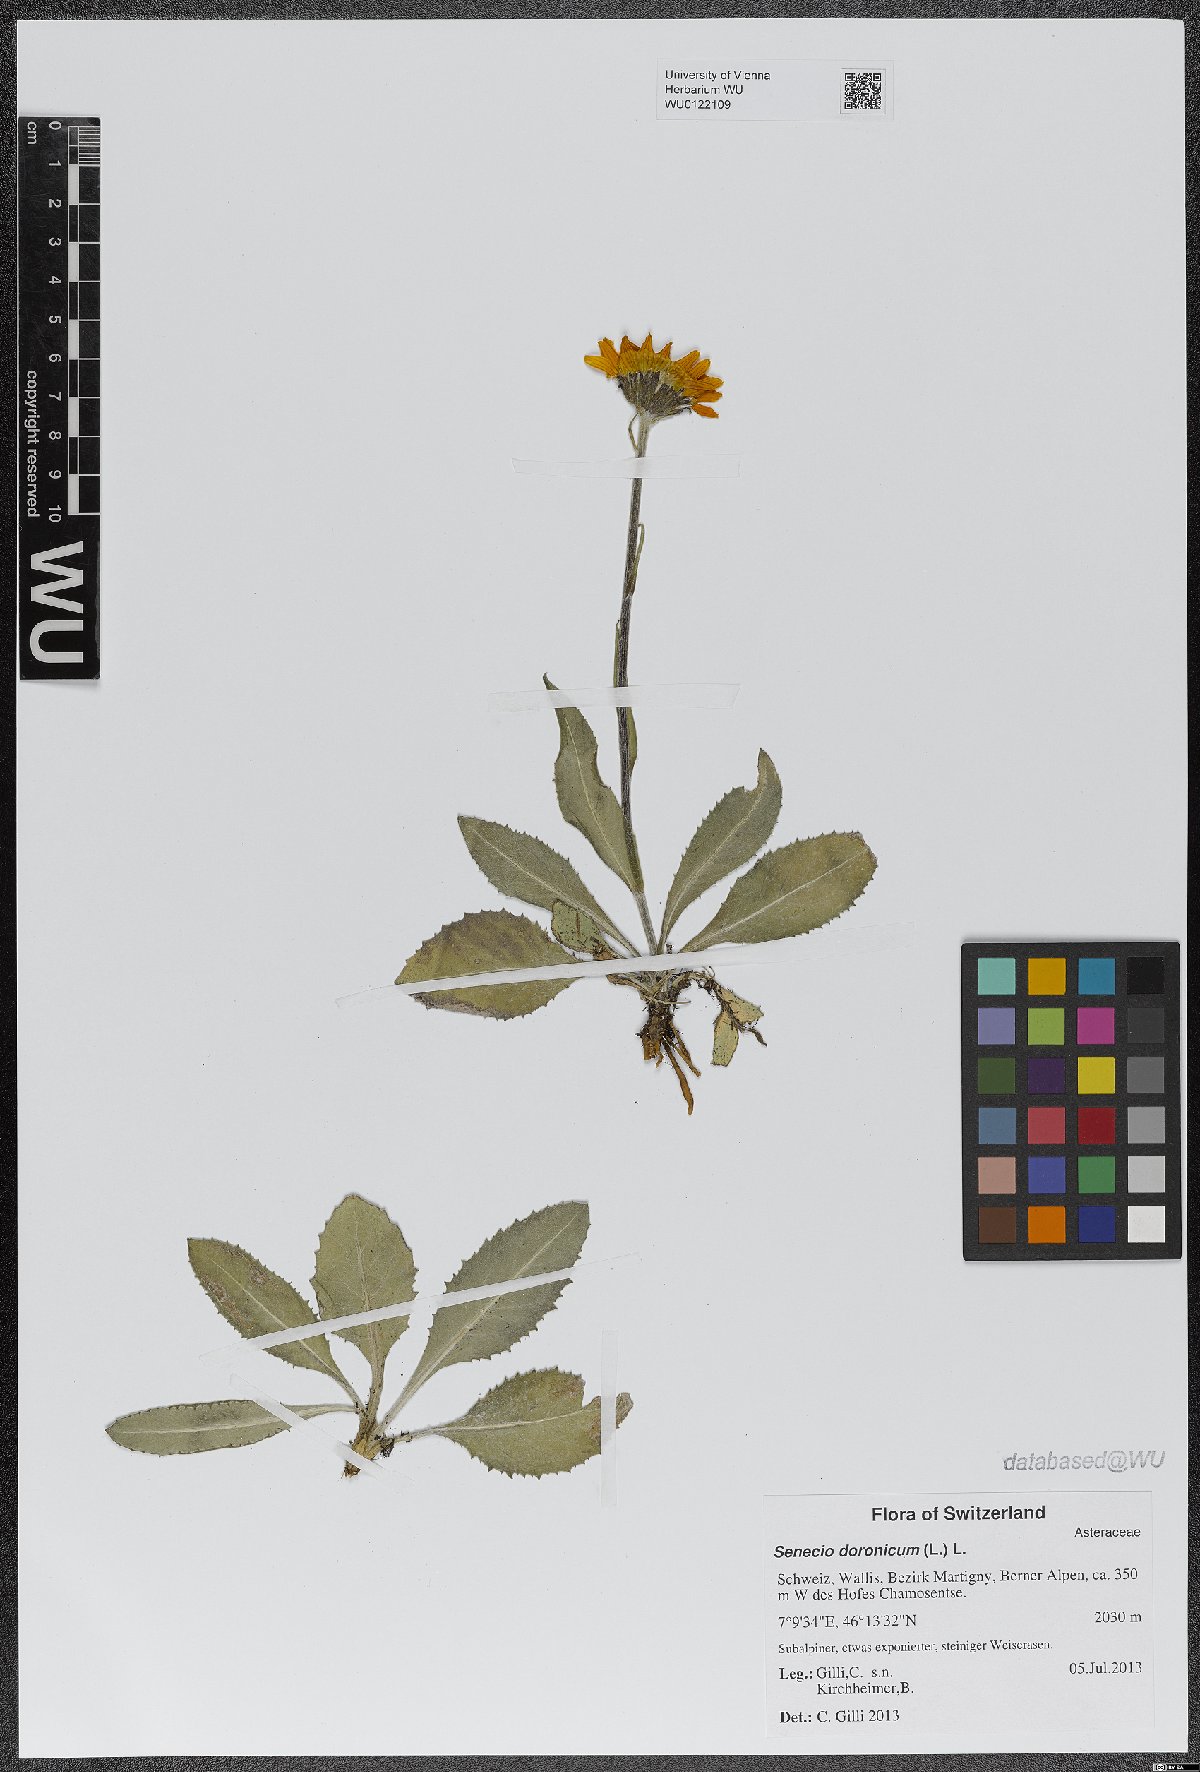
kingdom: Plantae
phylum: Tracheophyta
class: Magnoliopsida
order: Asterales
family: Asteraceae
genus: Senecio
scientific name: Senecio doronicum
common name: Chamois ragwort
